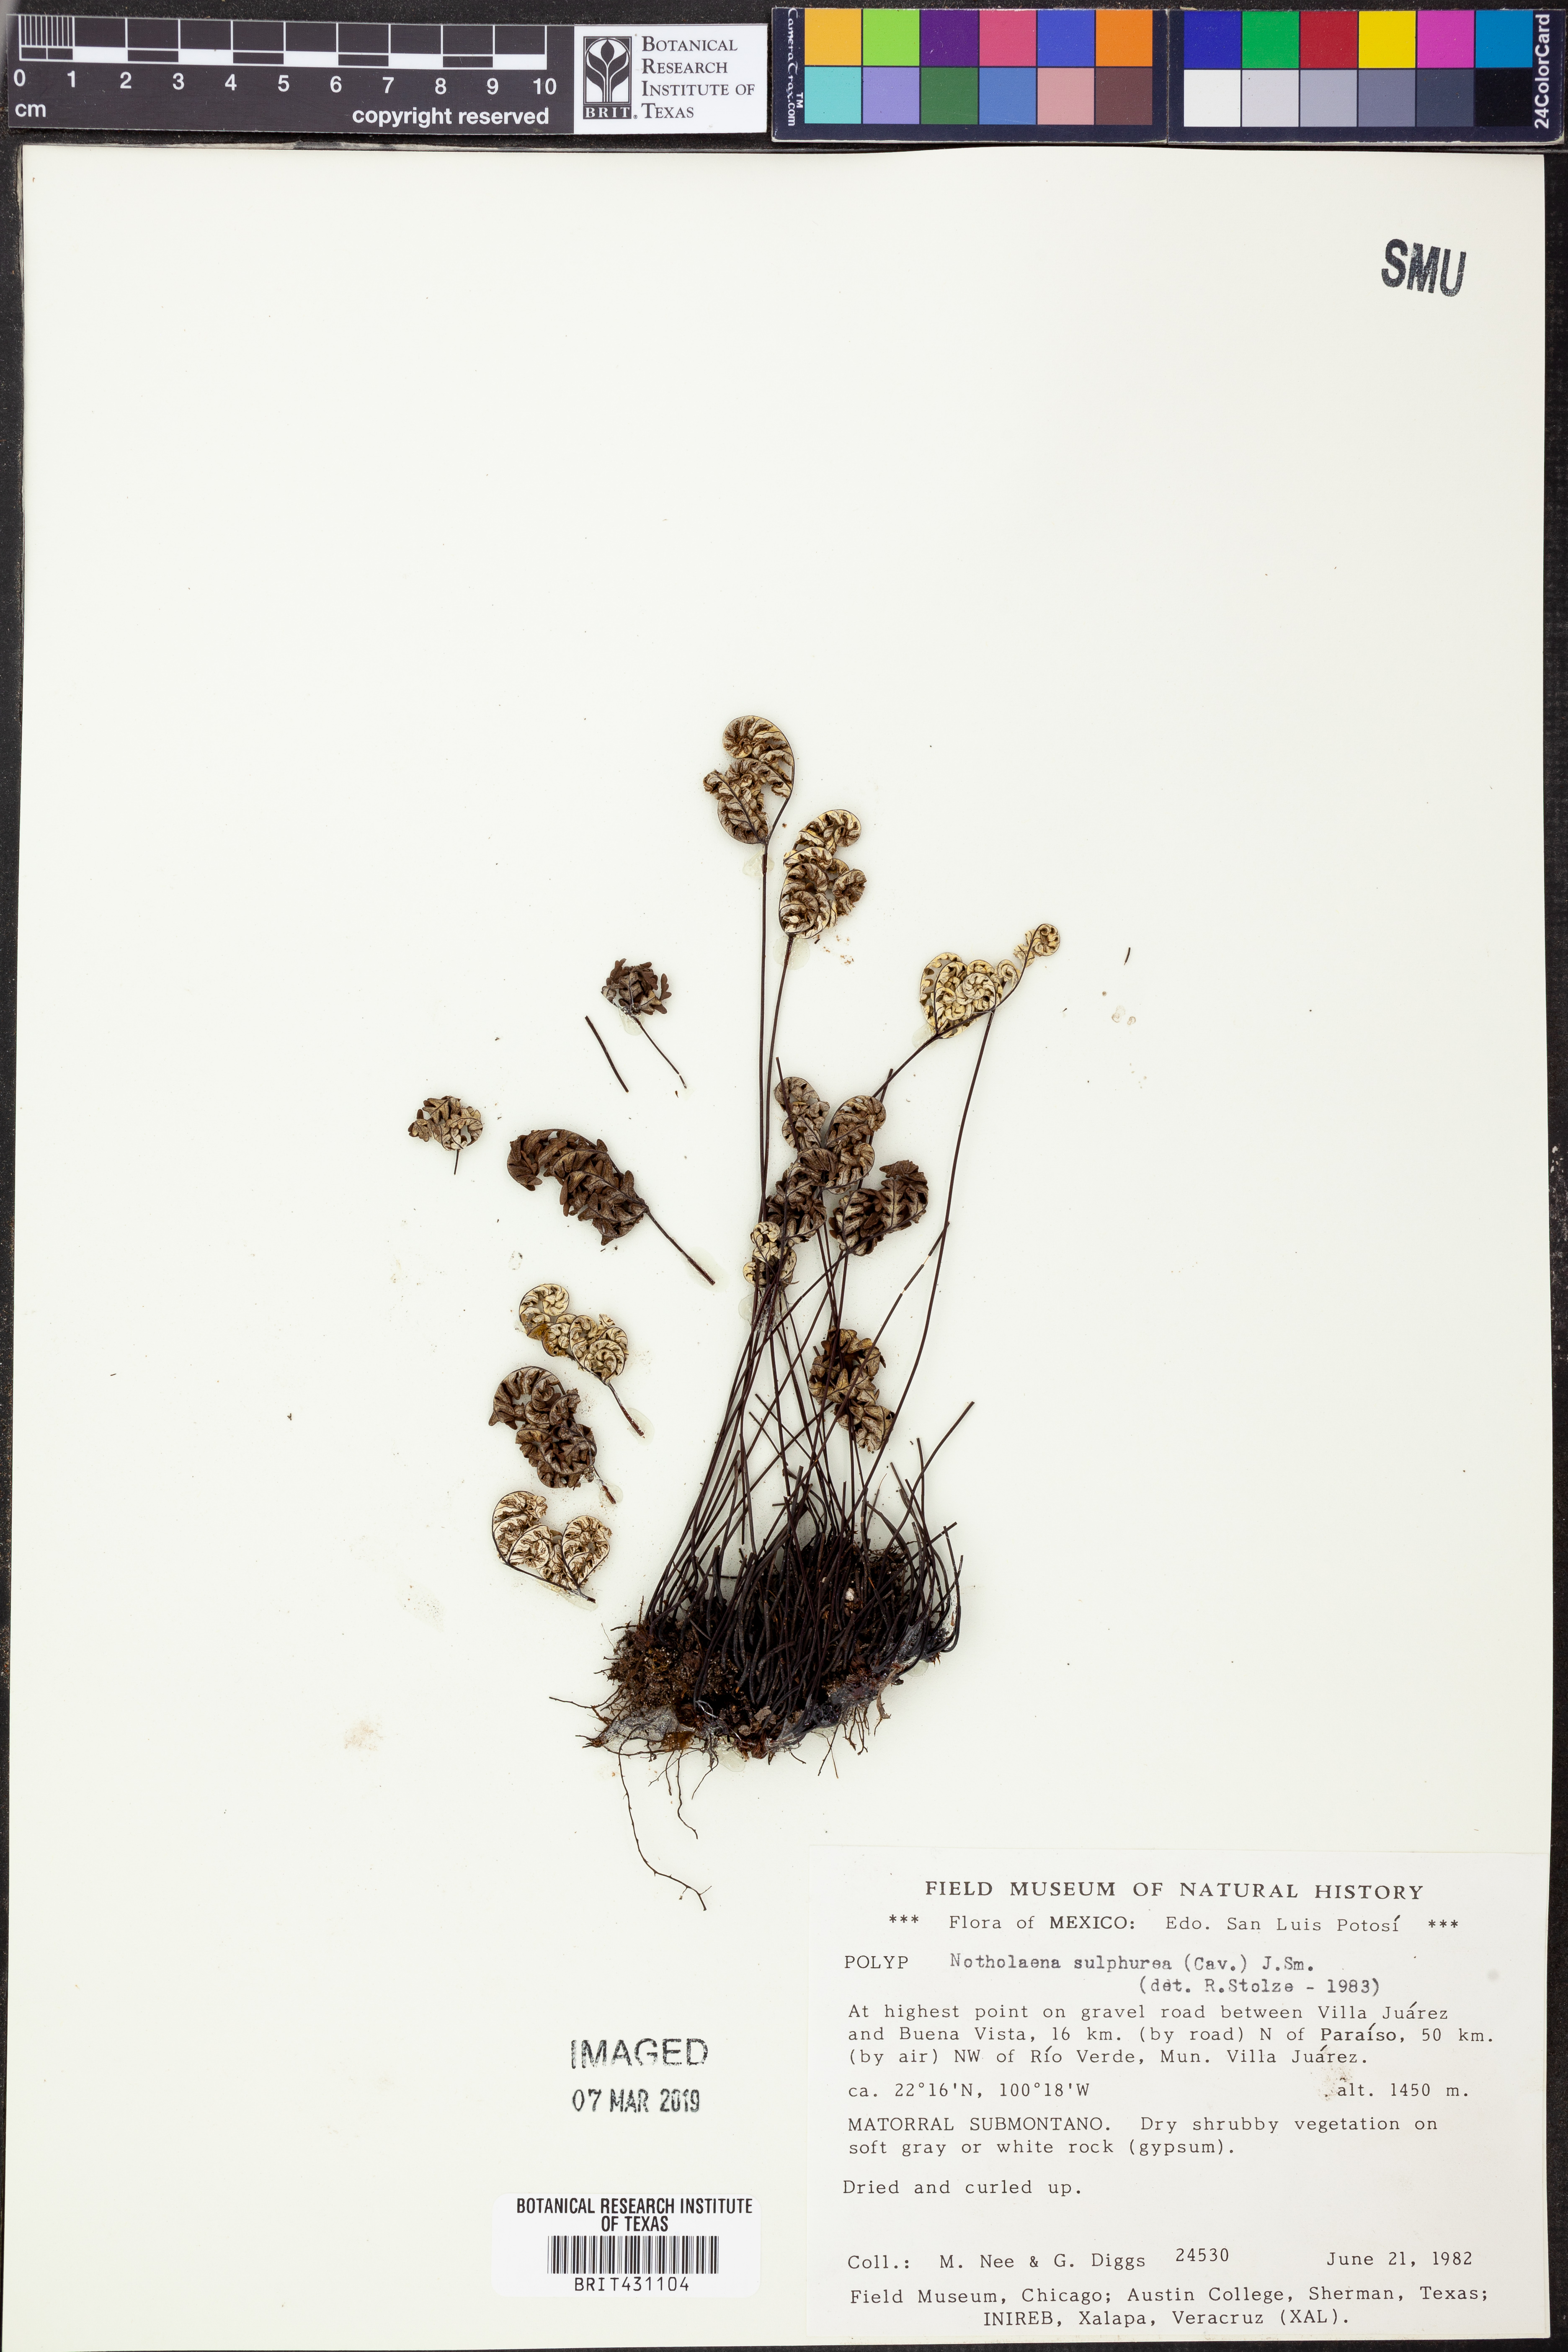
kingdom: Plantae
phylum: Tracheophyta
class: Polypodiopsida
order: Polypodiales
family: Pteridaceae
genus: Notholaena
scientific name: Notholaena sulphurea
